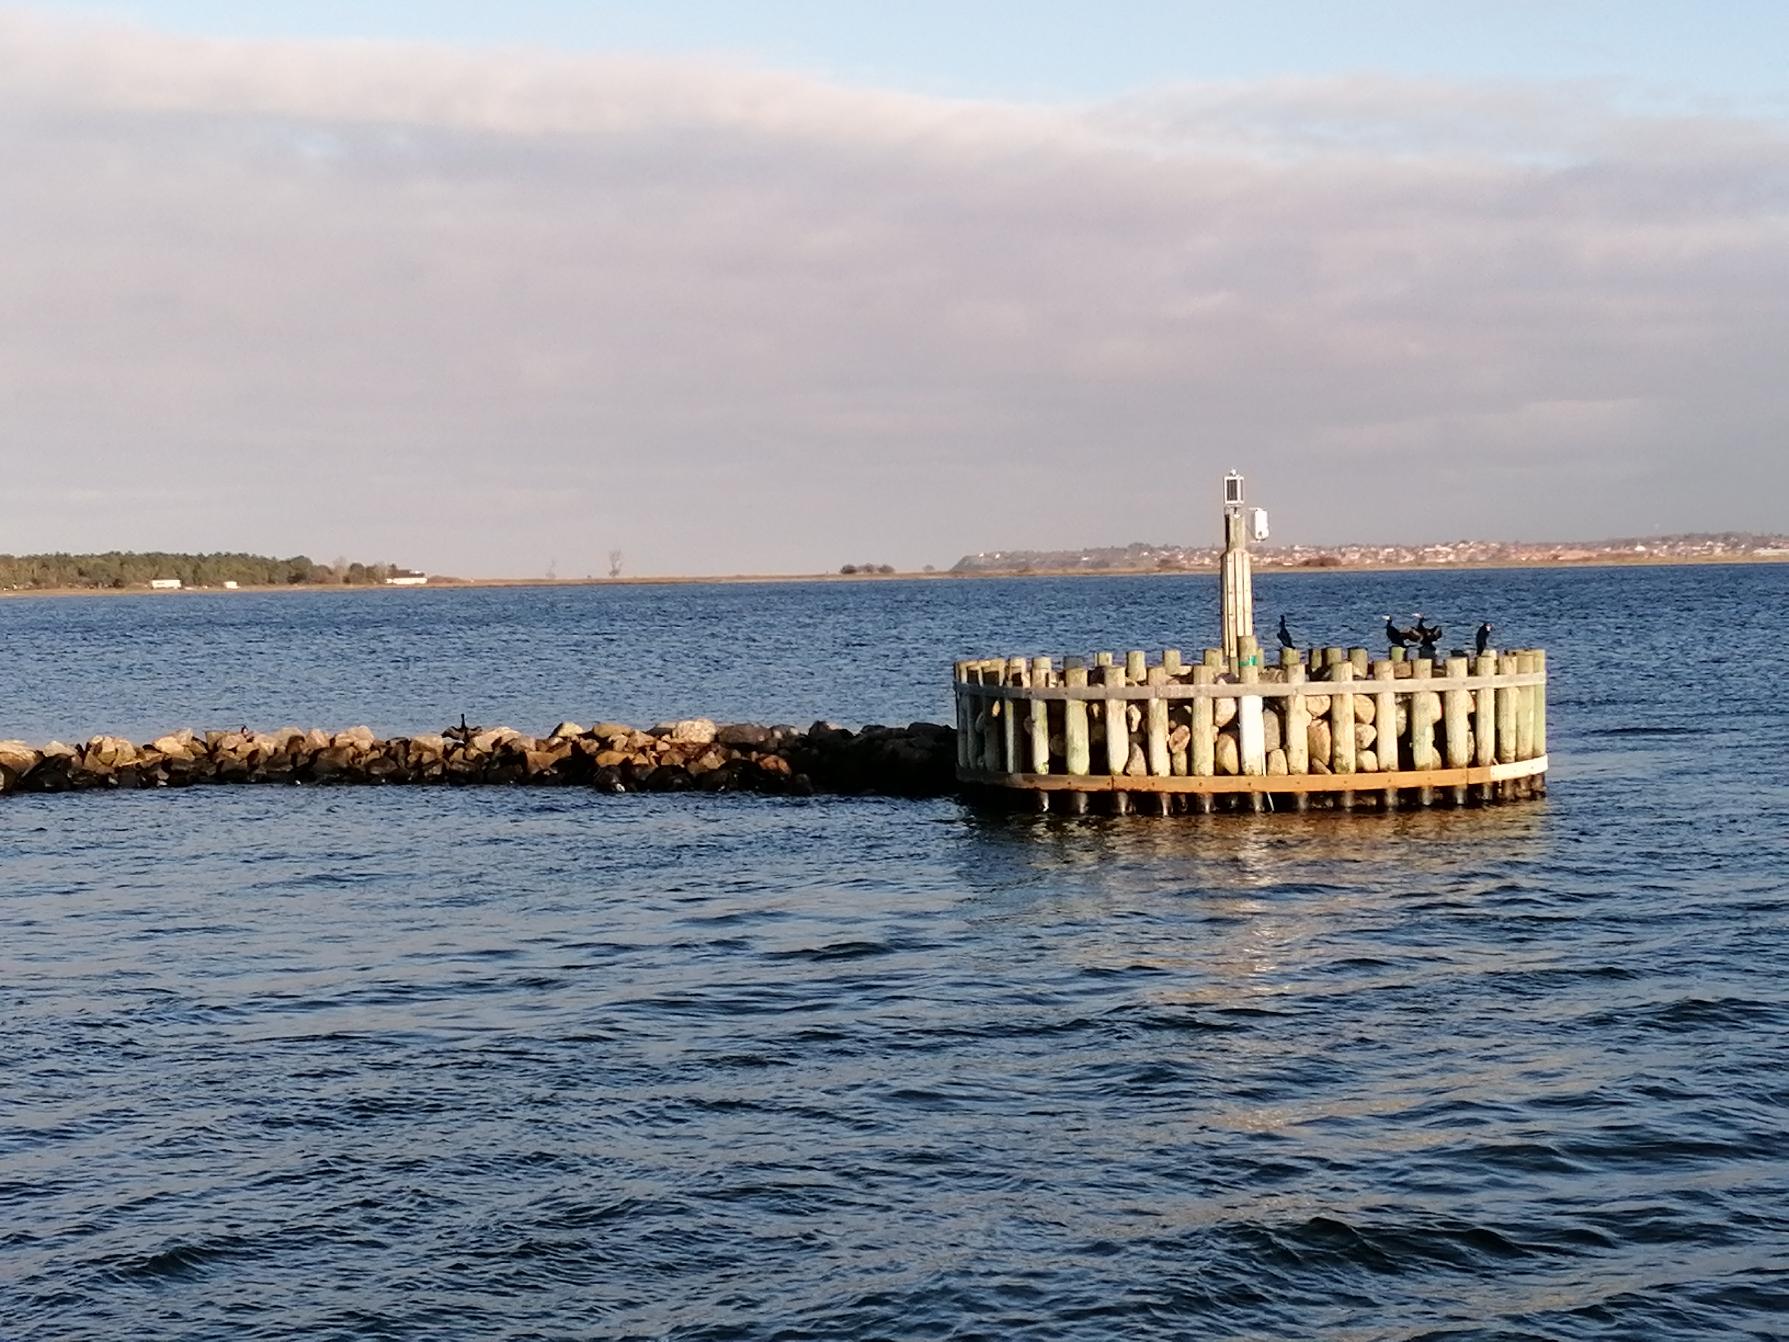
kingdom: Animalia
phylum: Chordata
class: Aves
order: Suliformes
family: Phalacrocoracidae
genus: Phalacrocorax
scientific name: Phalacrocorax carbo
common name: Skarv
